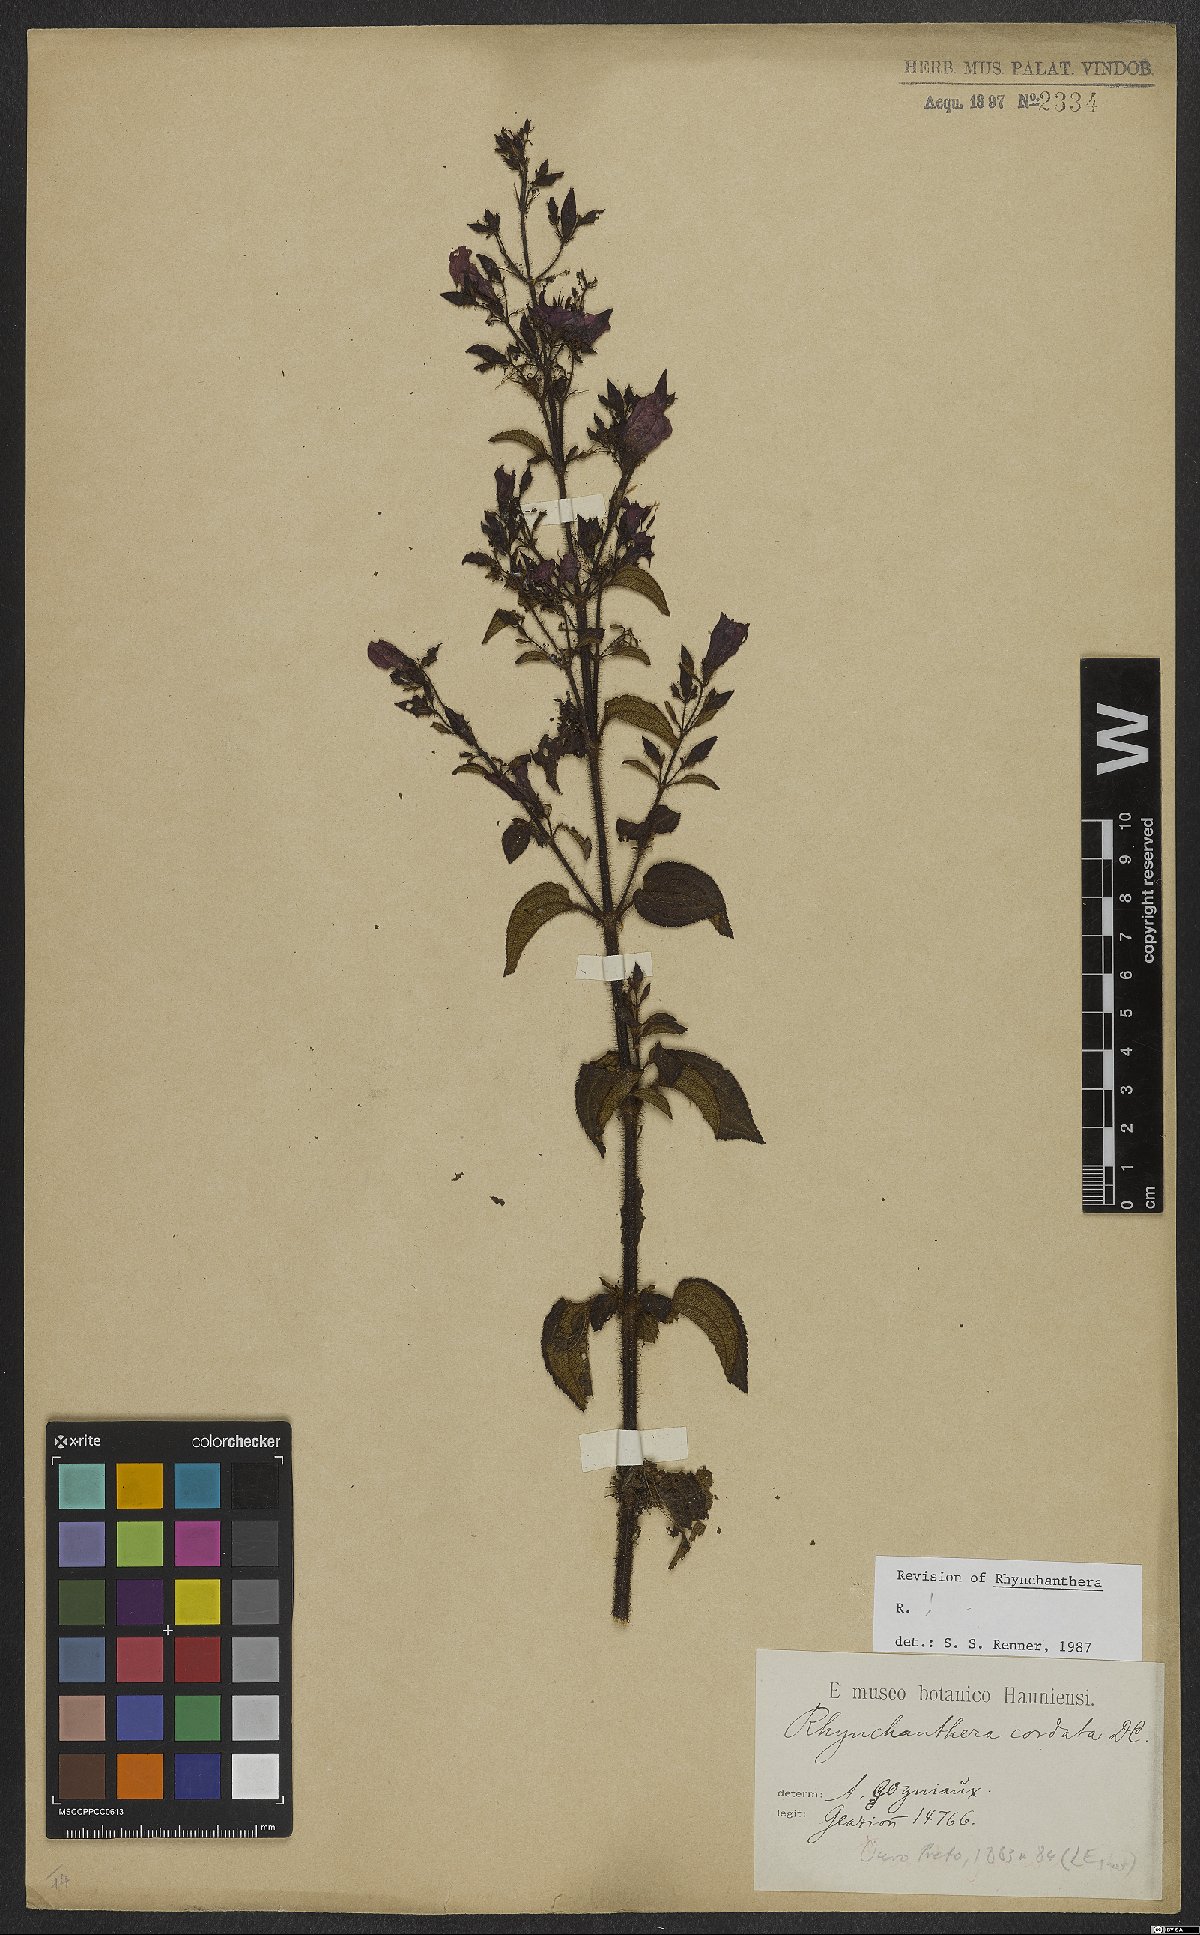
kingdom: Plantae
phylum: Tracheophyta
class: Magnoliopsida
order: Myrtales
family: Melastomataceae
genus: Rhynchanthera
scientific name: Rhynchanthera cordata
